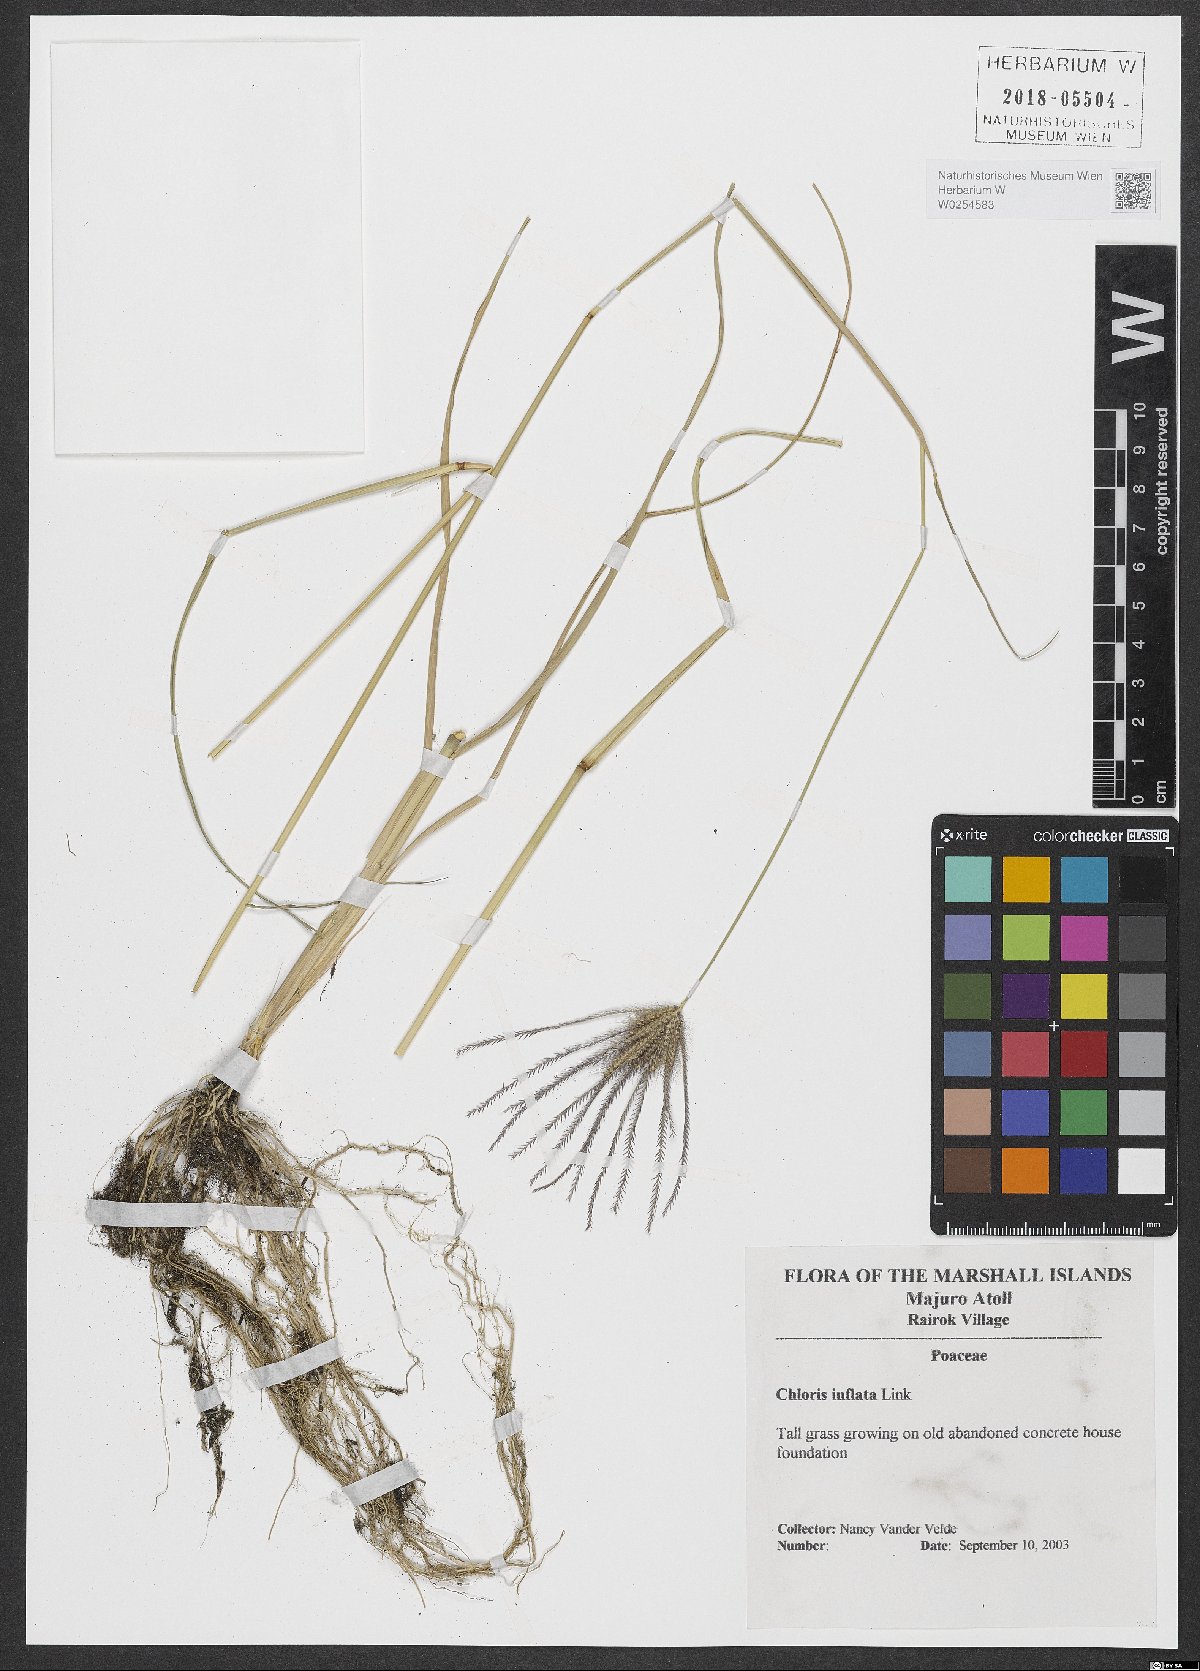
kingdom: Plantae
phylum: Tracheophyta
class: Liliopsida
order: Poales
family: Poaceae
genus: Chloris
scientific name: Chloris barbata
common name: Swollen fingergrass
